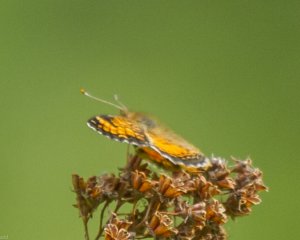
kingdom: Animalia
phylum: Arthropoda
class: Insecta
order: Lepidoptera
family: Nymphalidae
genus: Phyciodes
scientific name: Phyciodes tharos
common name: Northern Crescent
